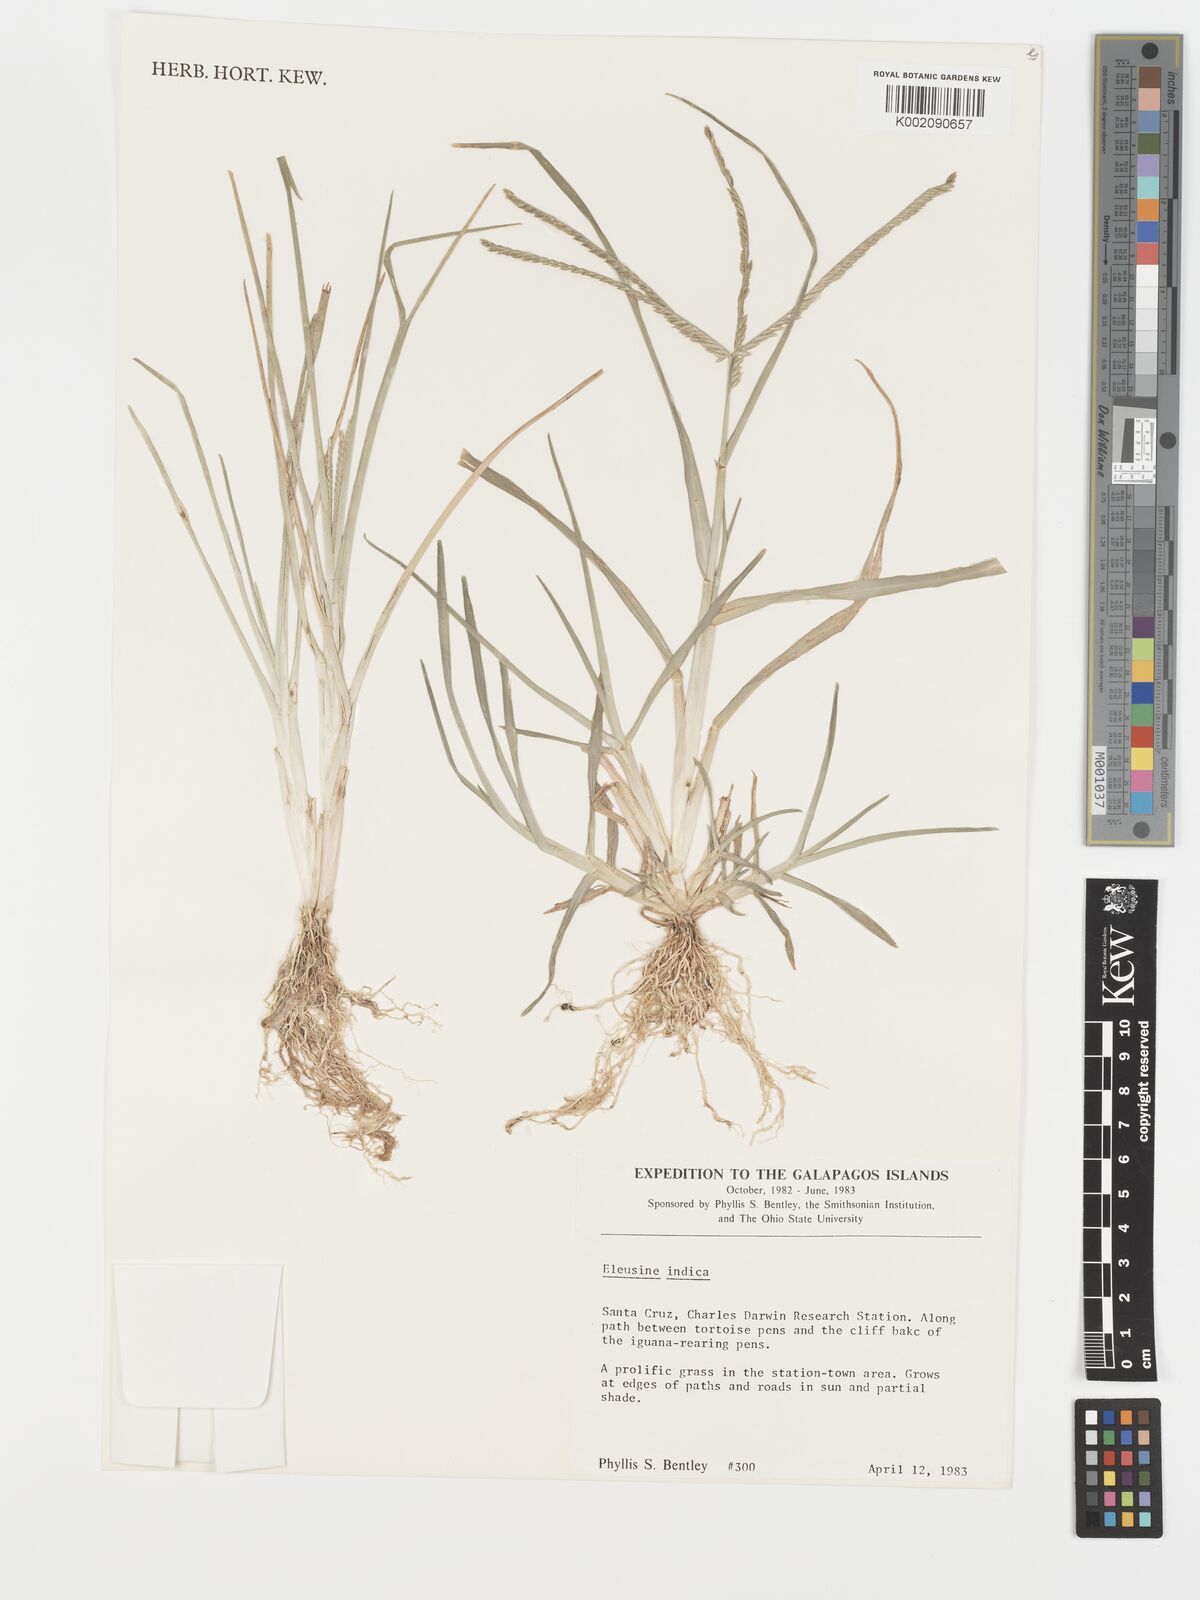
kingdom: Plantae
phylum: Tracheophyta
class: Liliopsida
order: Poales
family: Poaceae
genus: Eleusine
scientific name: Eleusine indica
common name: Yard-grass
